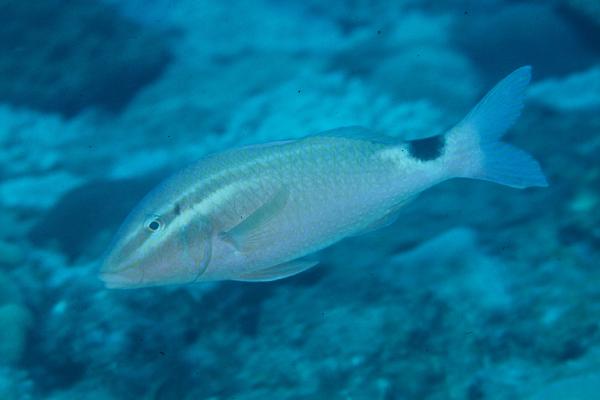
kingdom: Animalia
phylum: Chordata
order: Perciformes
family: Mullidae
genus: Parupeneus
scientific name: Parupeneus rubescens
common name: Rosy goatfish
